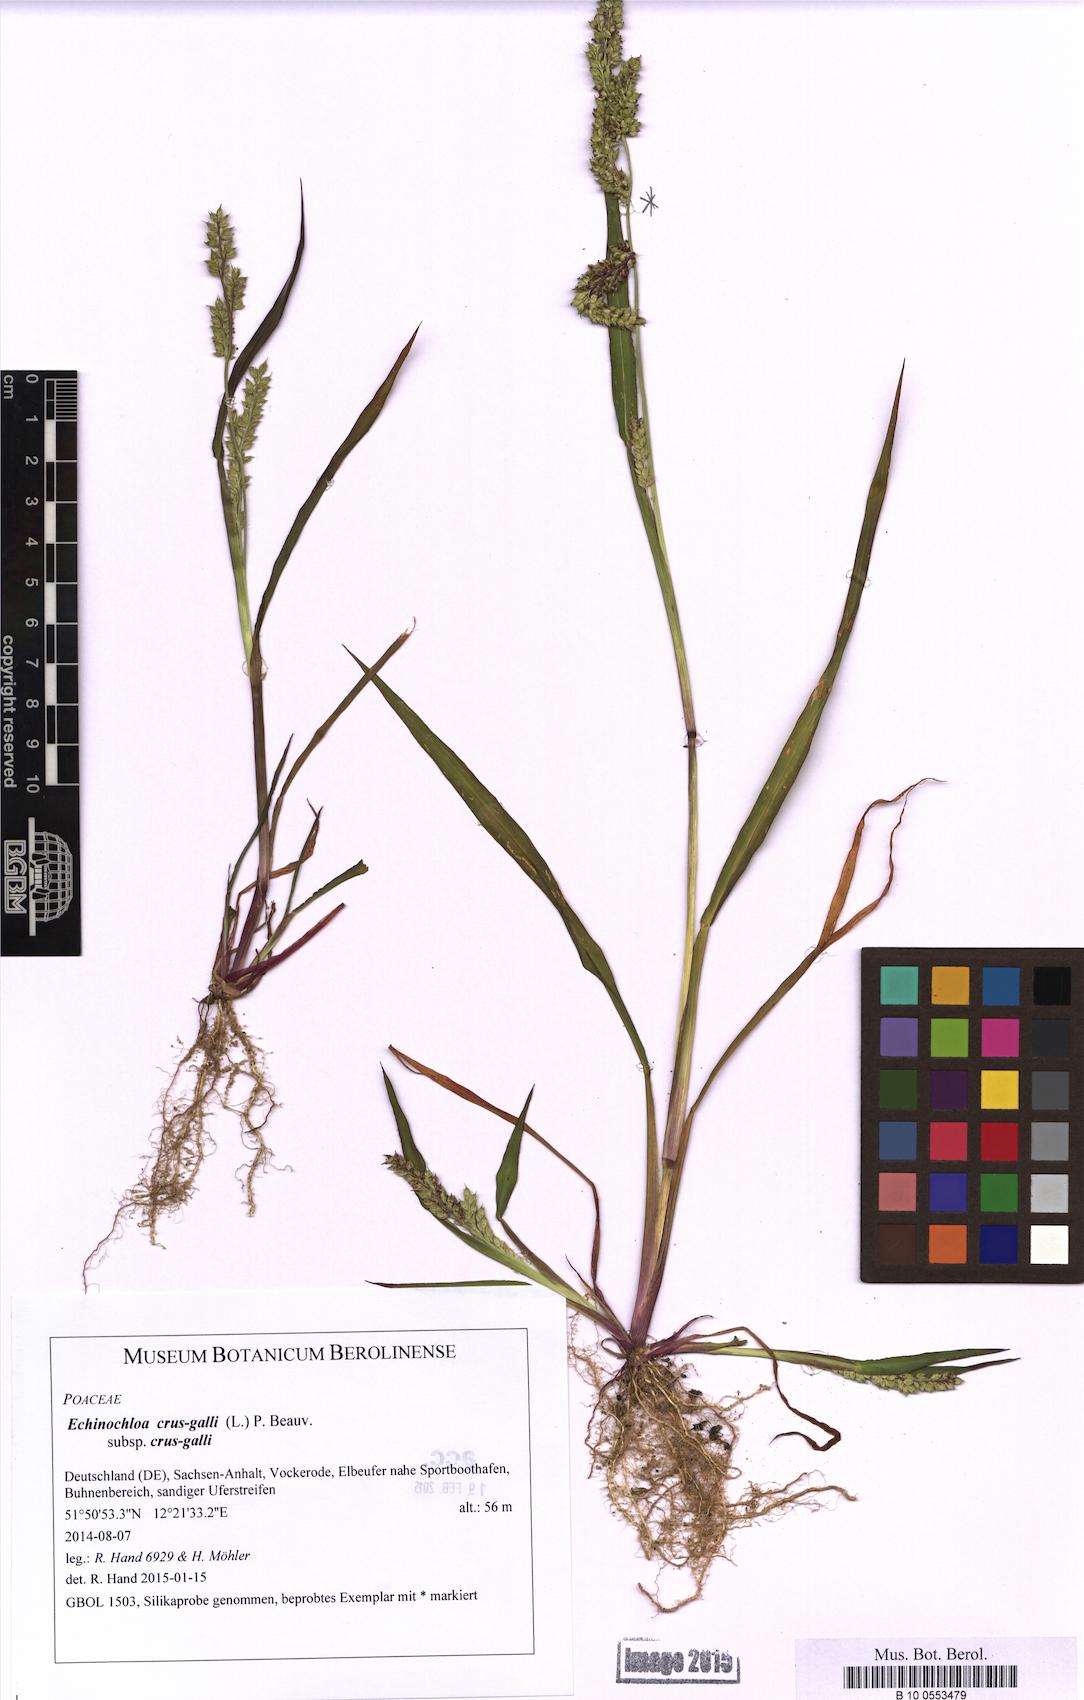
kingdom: Plantae
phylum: Tracheophyta
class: Liliopsida
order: Poales
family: Poaceae
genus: Echinochloa
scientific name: Echinochloa crus-galli
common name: Cockspur
